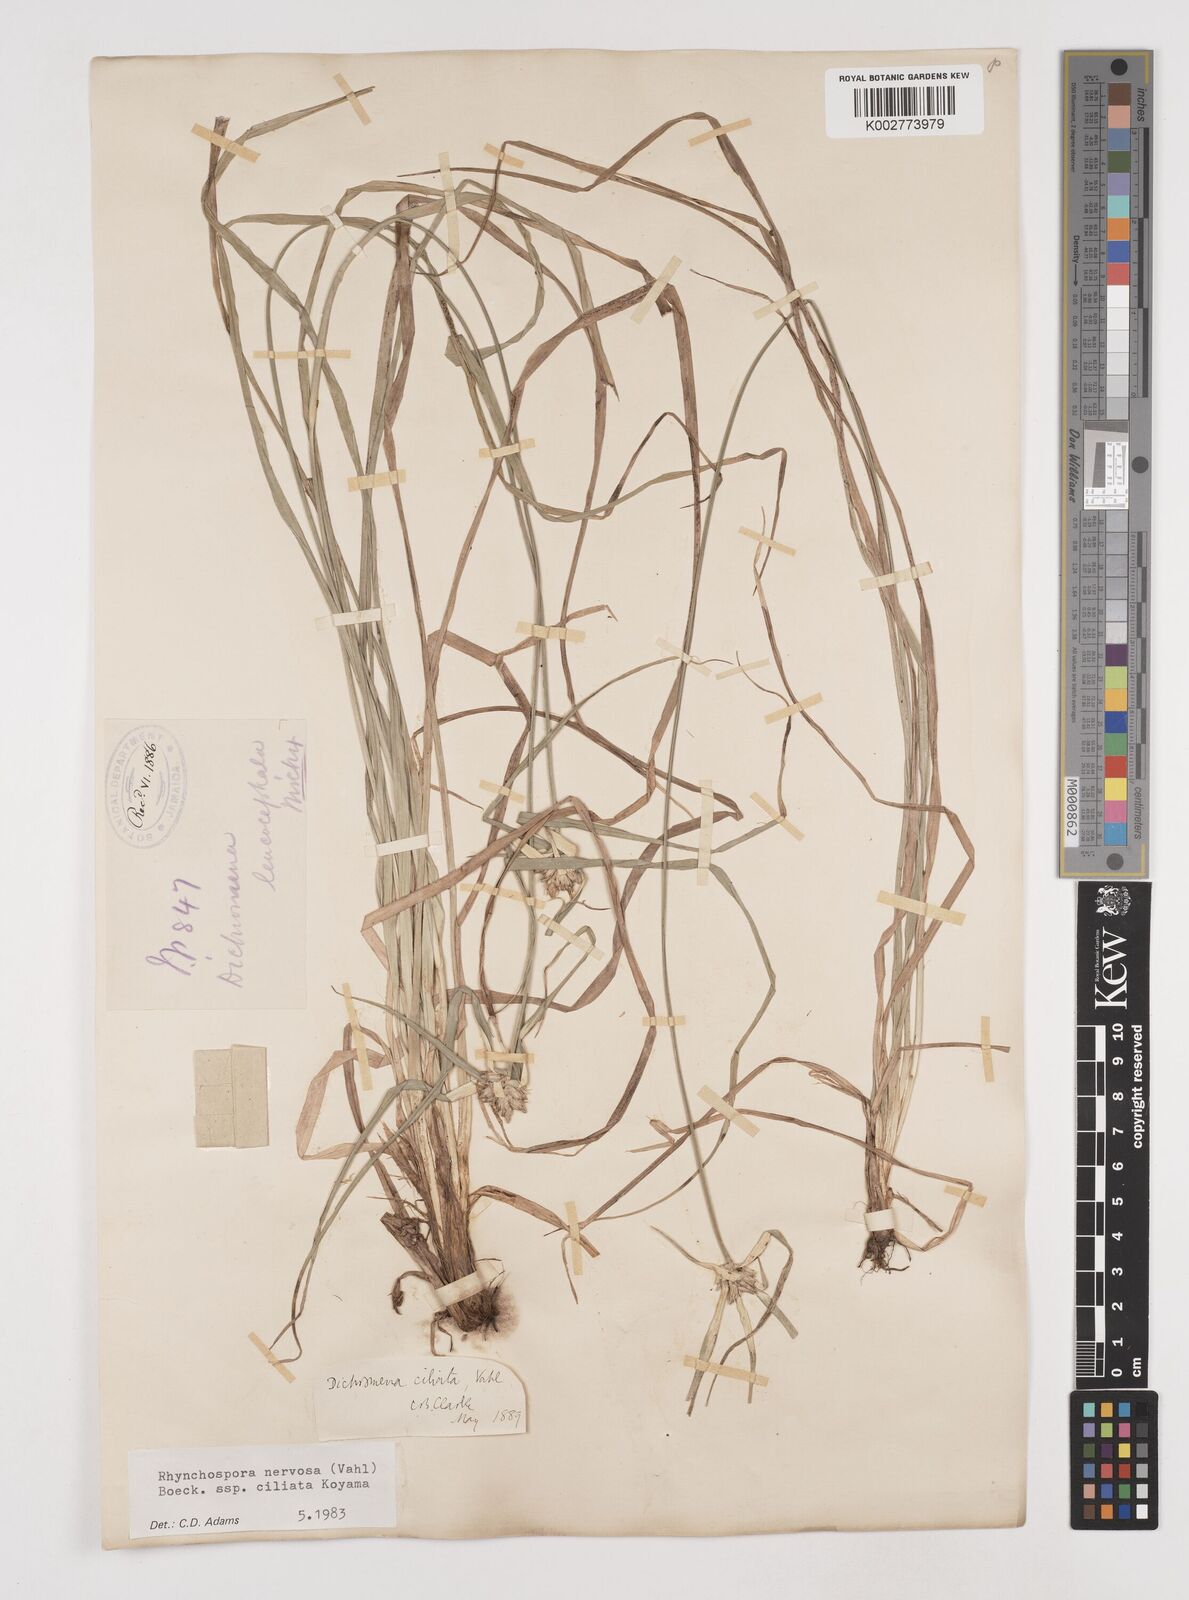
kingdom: Plantae
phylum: Tracheophyta
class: Liliopsida
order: Poales
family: Cyperaceae
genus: Rhynchospora
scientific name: Rhynchospora pura
